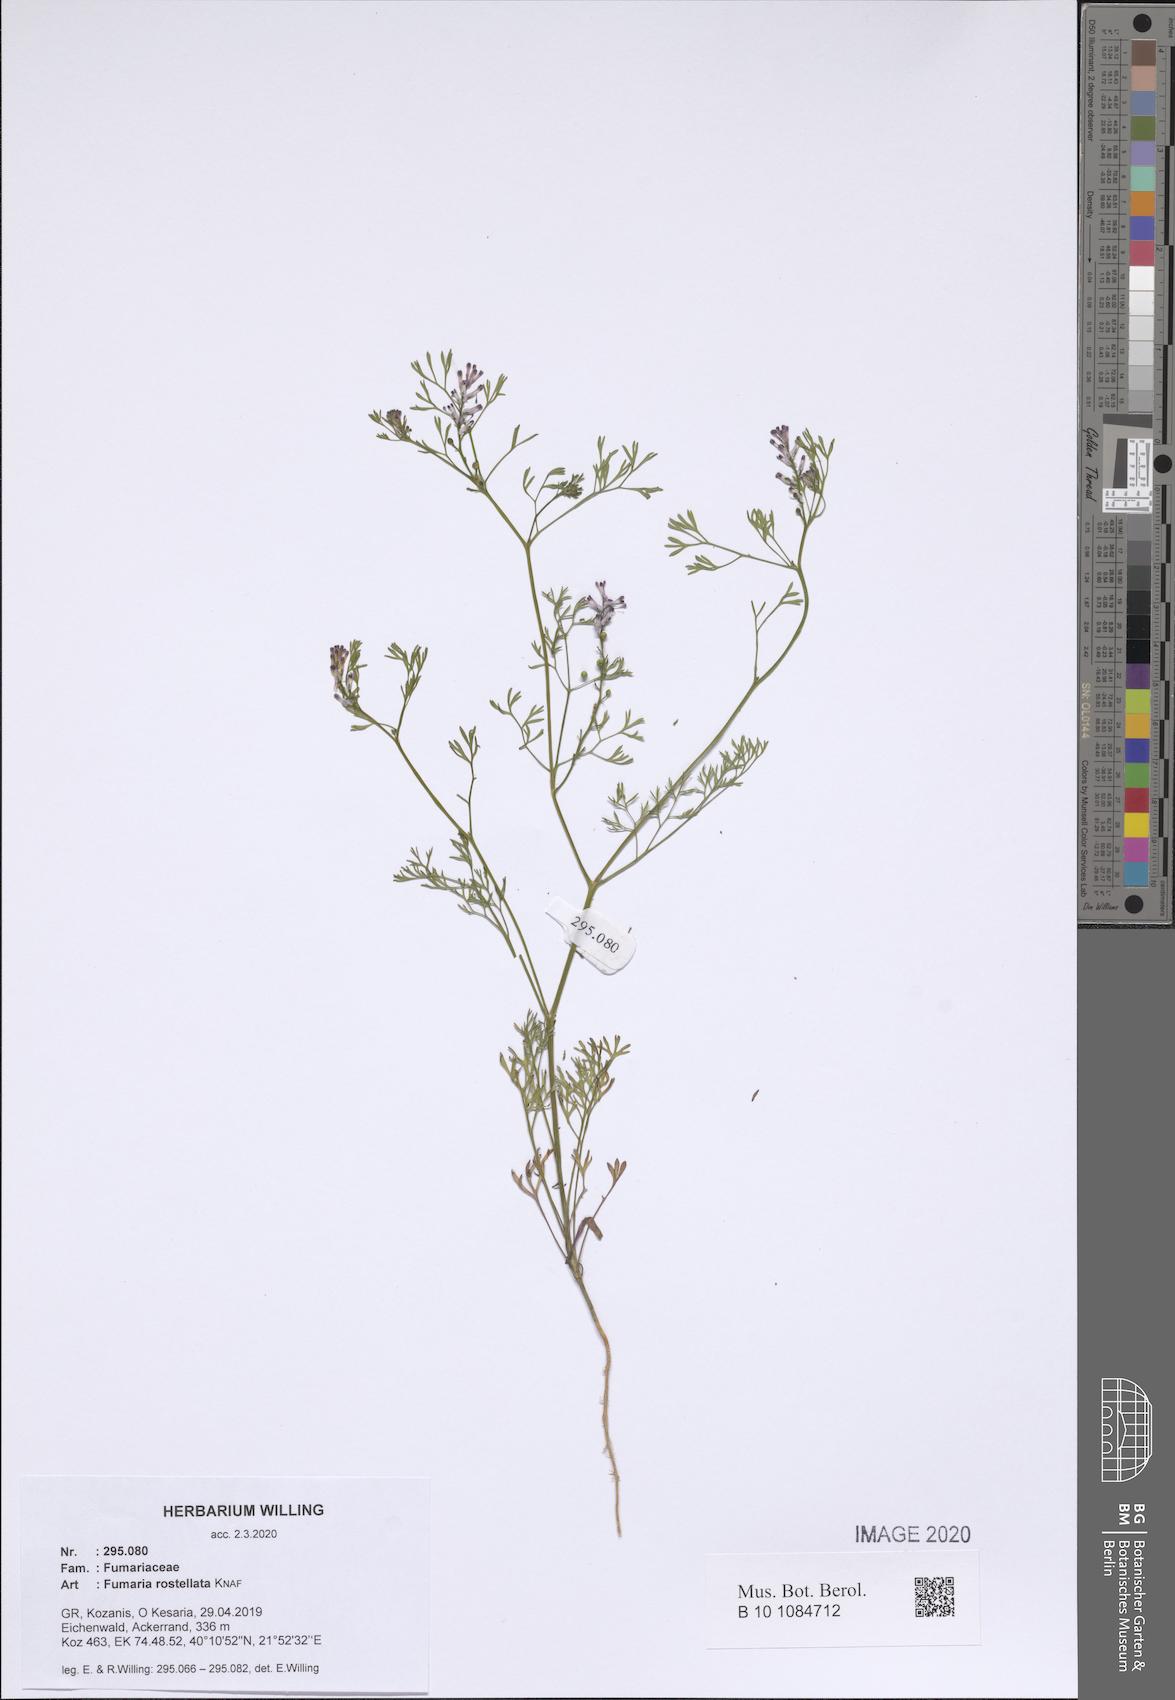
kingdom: Plantae
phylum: Tracheophyta
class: Magnoliopsida
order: Ranunculales
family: Papaveraceae
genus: Fumaria
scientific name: Fumaria rostellata
